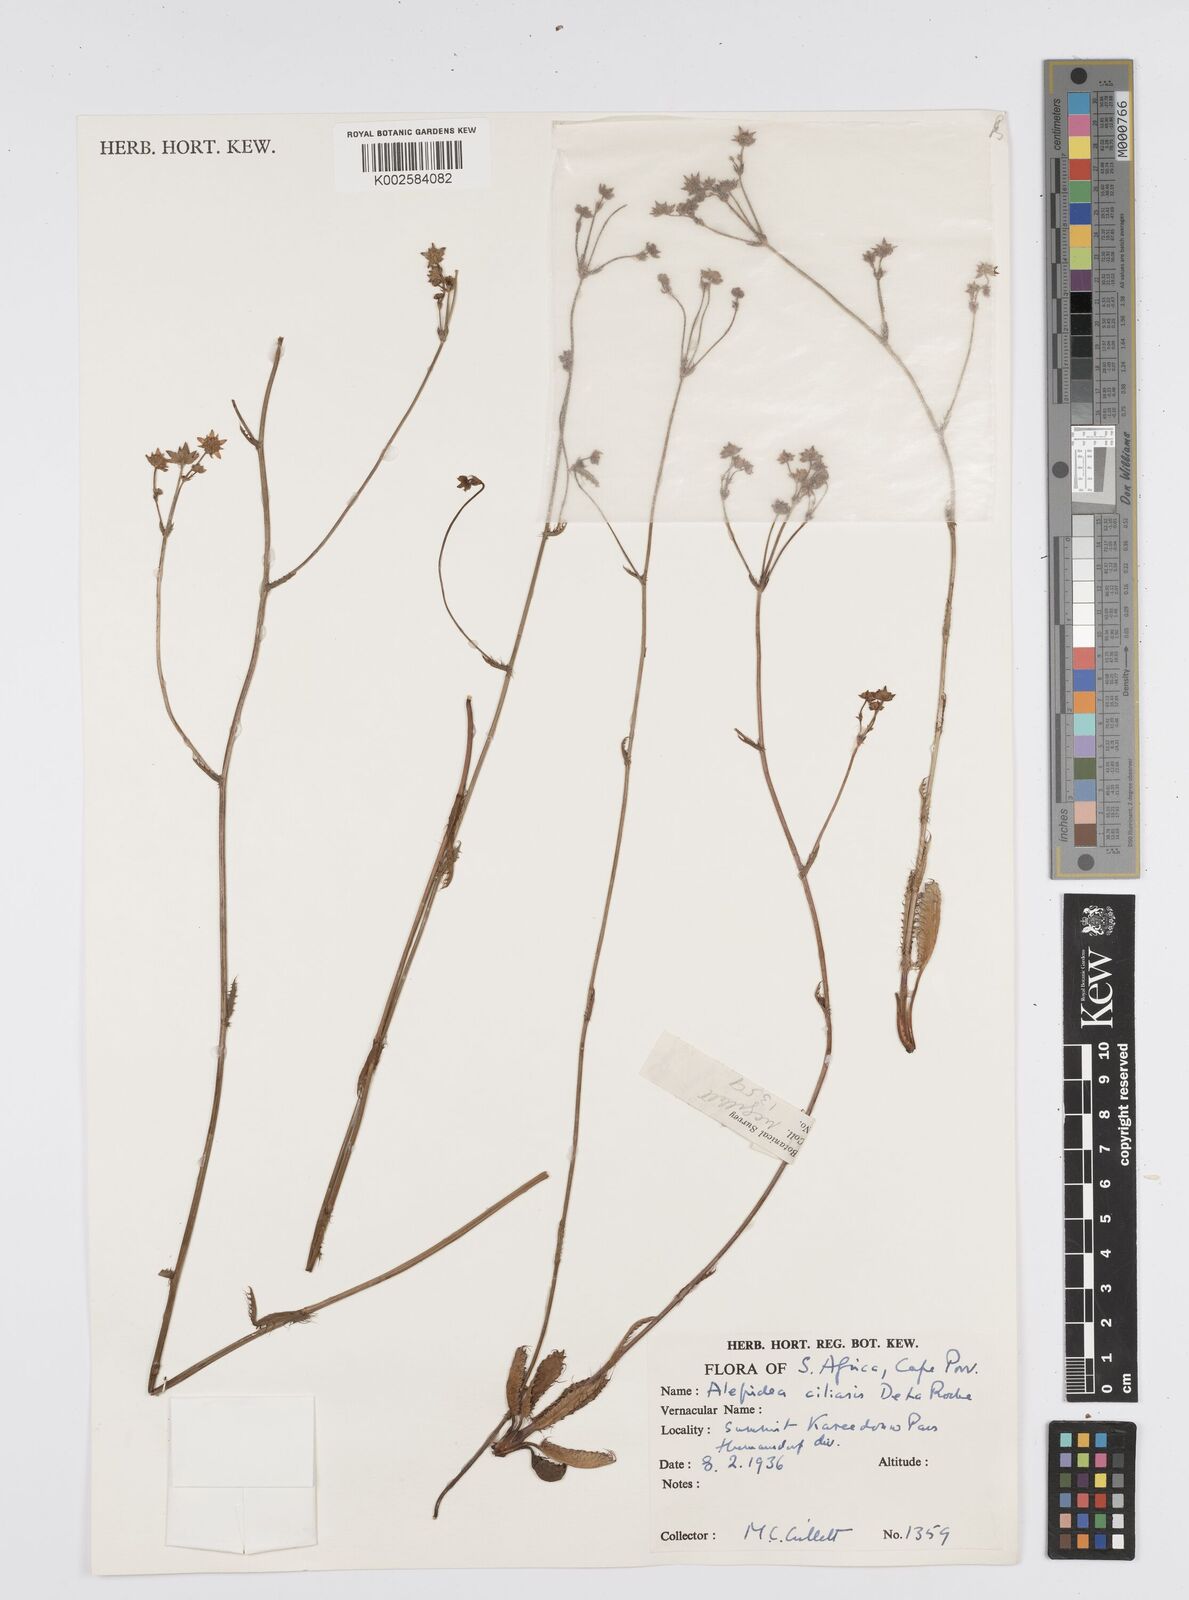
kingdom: Plantae
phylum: Tracheophyta
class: Magnoliopsida
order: Apiales
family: Apiaceae
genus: Alepidea
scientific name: Alepidea capensis
